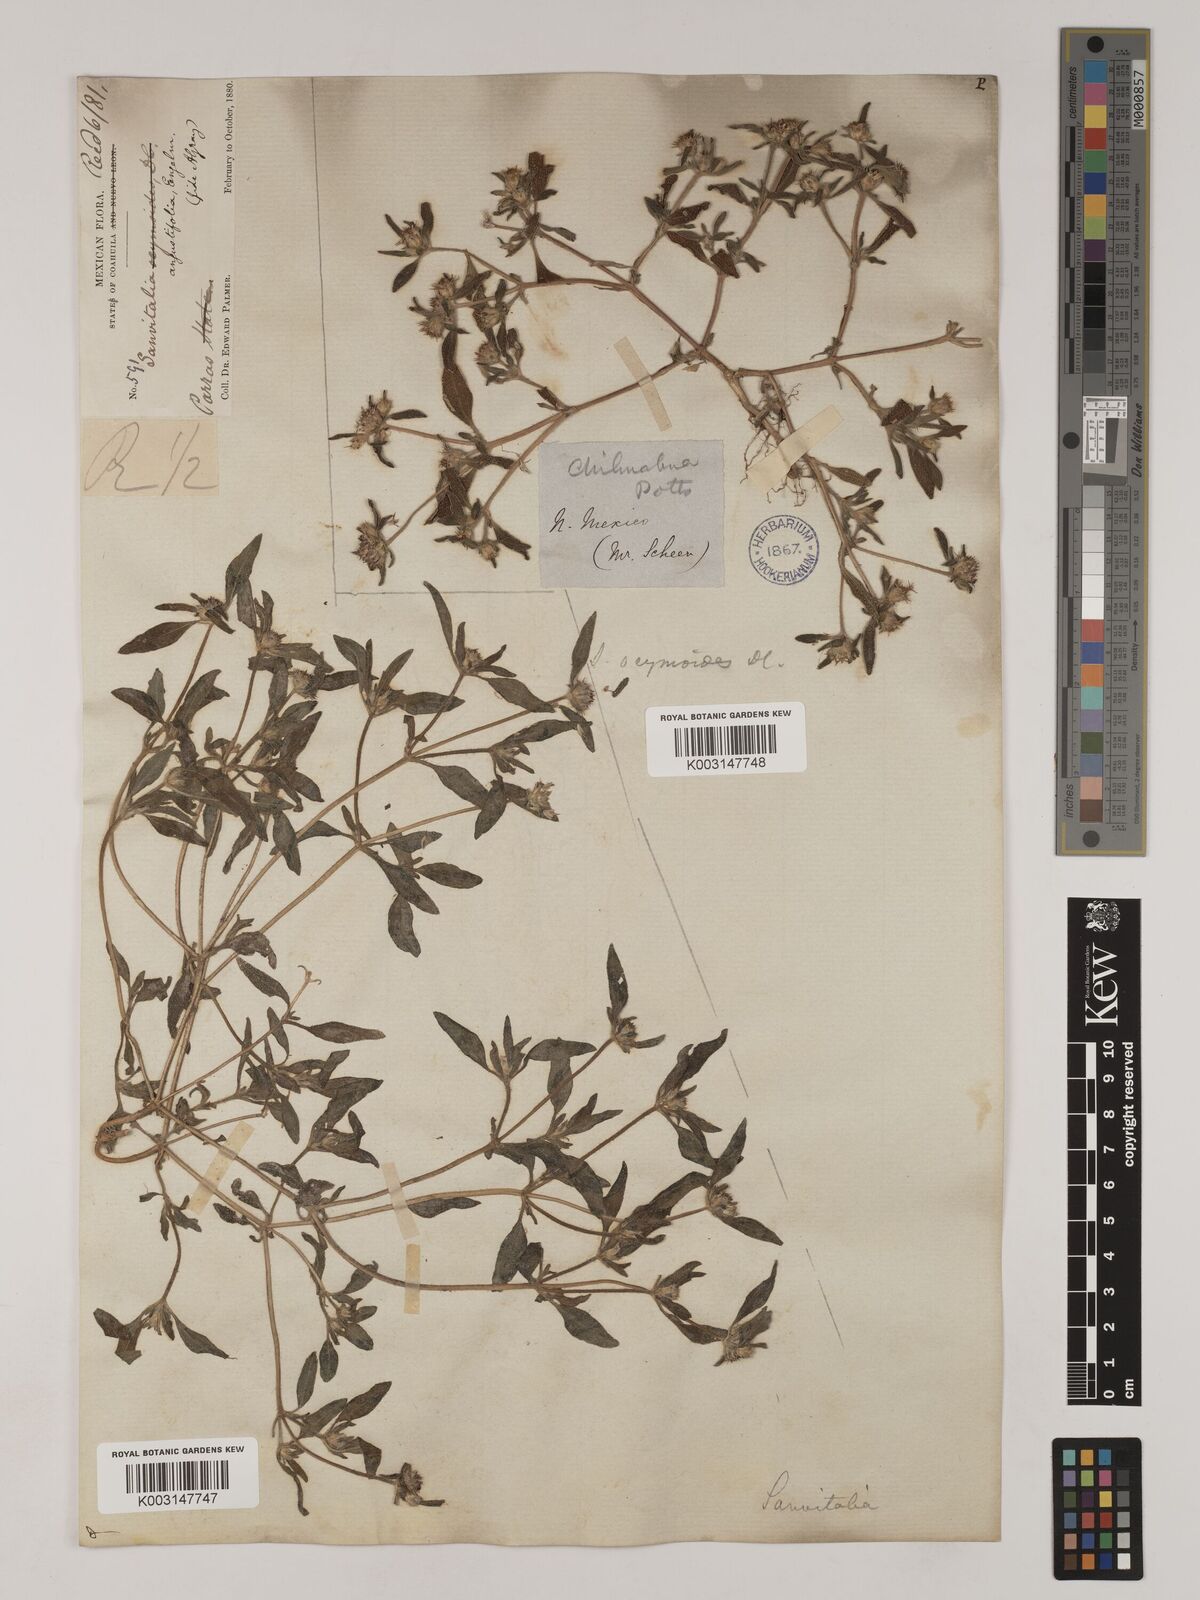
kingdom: Plantae
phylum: Tracheophyta
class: Magnoliopsida
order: Asterales
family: Asteraceae
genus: Sanvitalia
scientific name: Sanvitalia angustifolia
